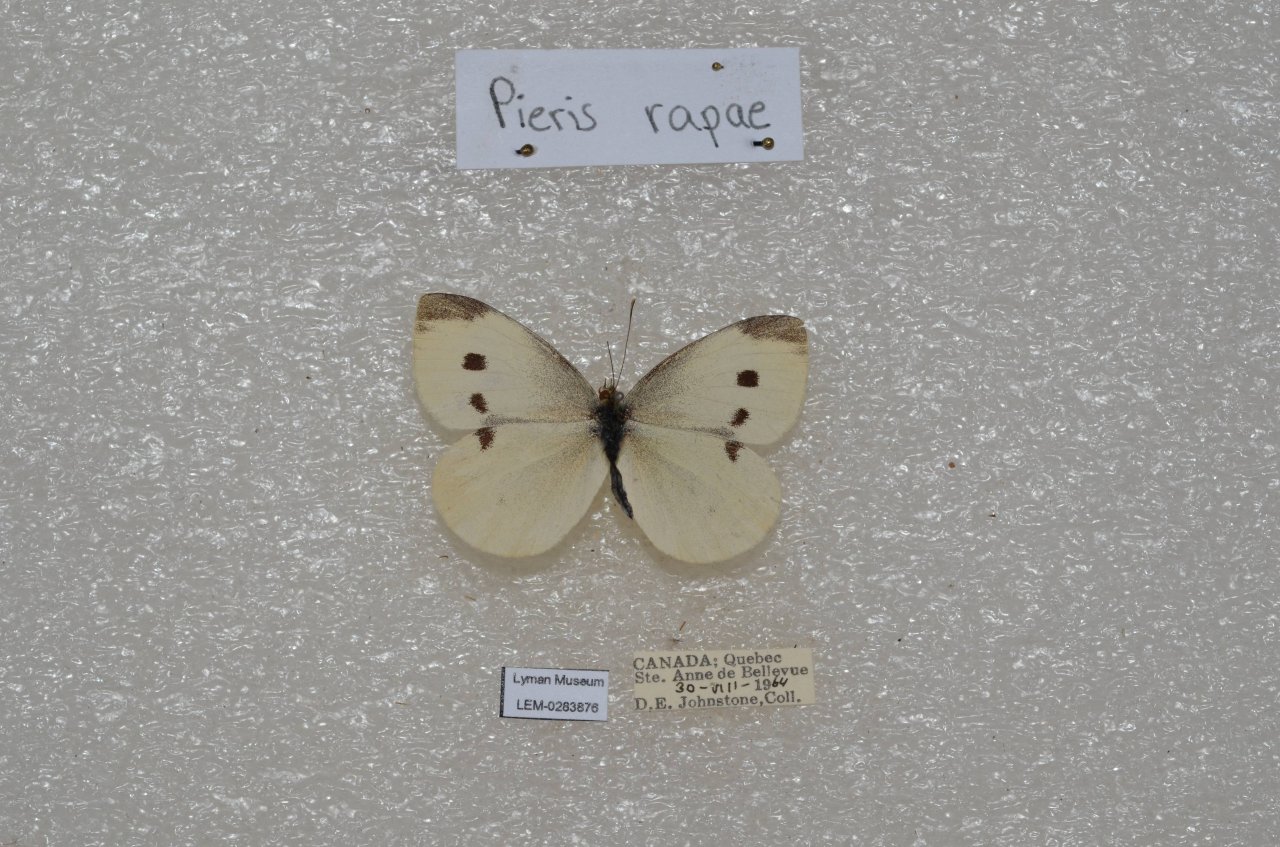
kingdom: Animalia
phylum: Arthropoda
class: Insecta
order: Lepidoptera
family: Pieridae
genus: Pieris
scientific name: Pieris rapae
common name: Cabbage White
